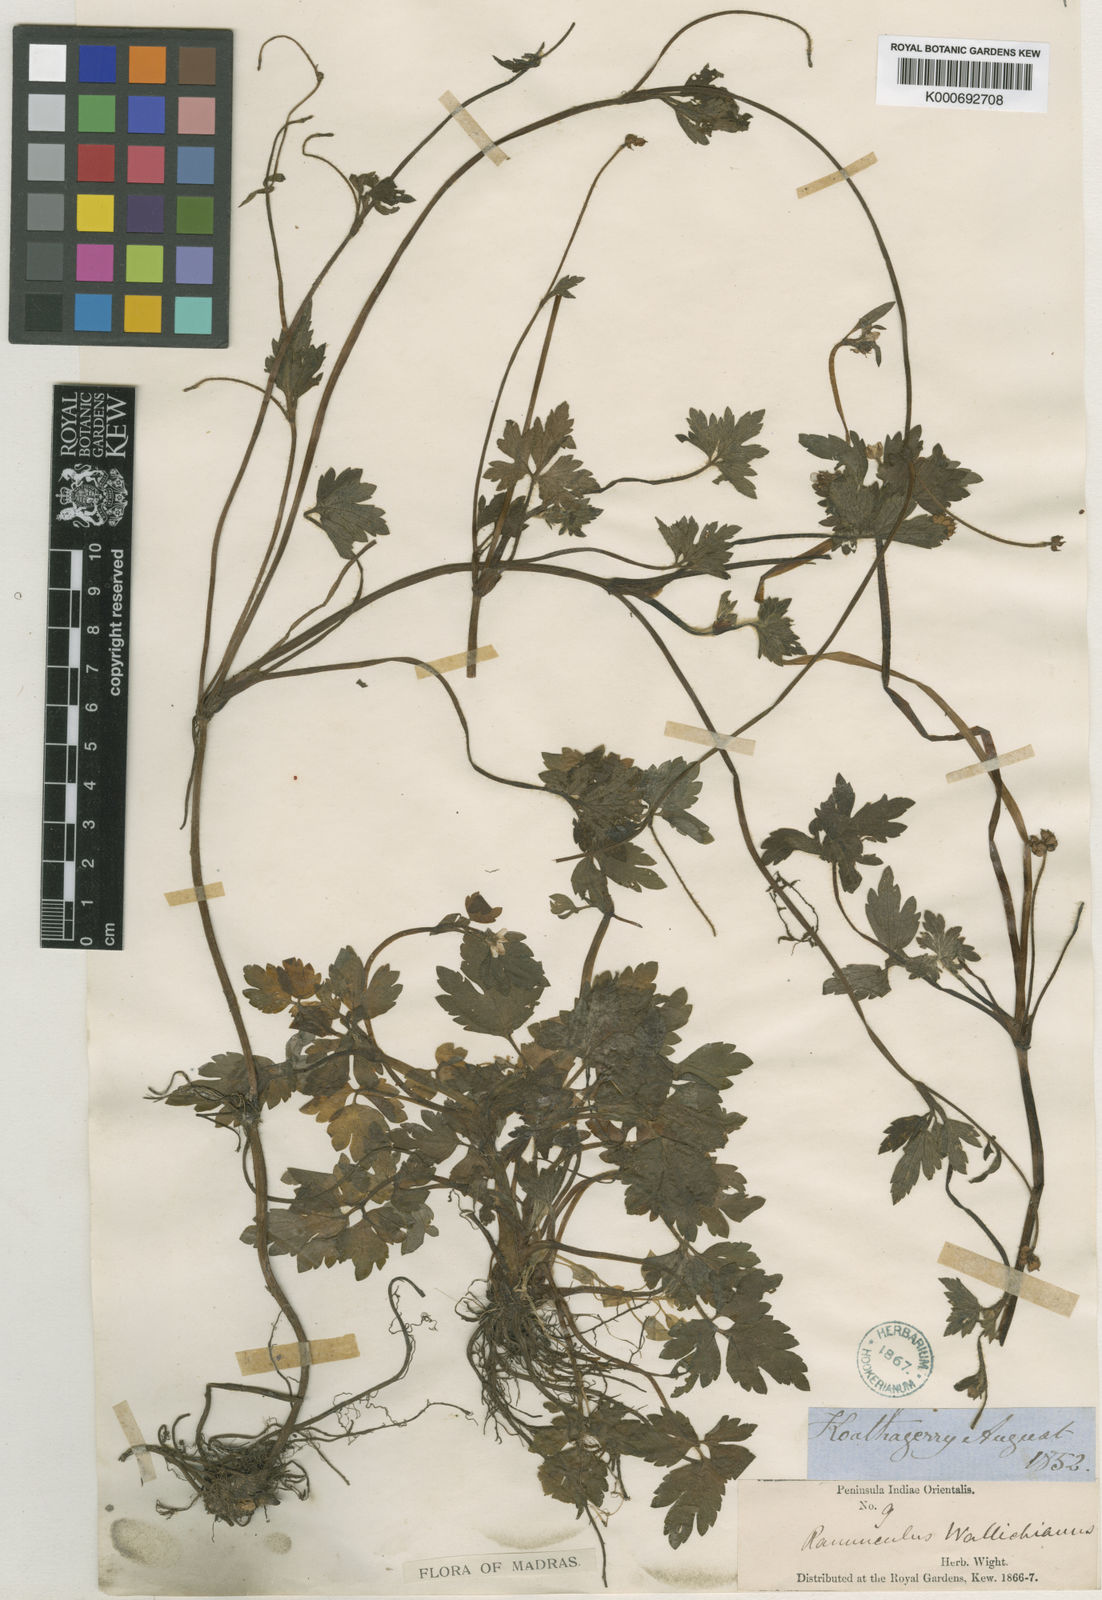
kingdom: Plantae
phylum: Tracheophyta
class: Magnoliopsida
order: Ranunculales
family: Ranunculaceae
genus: Ranunculus
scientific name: Ranunculus wallichianus
